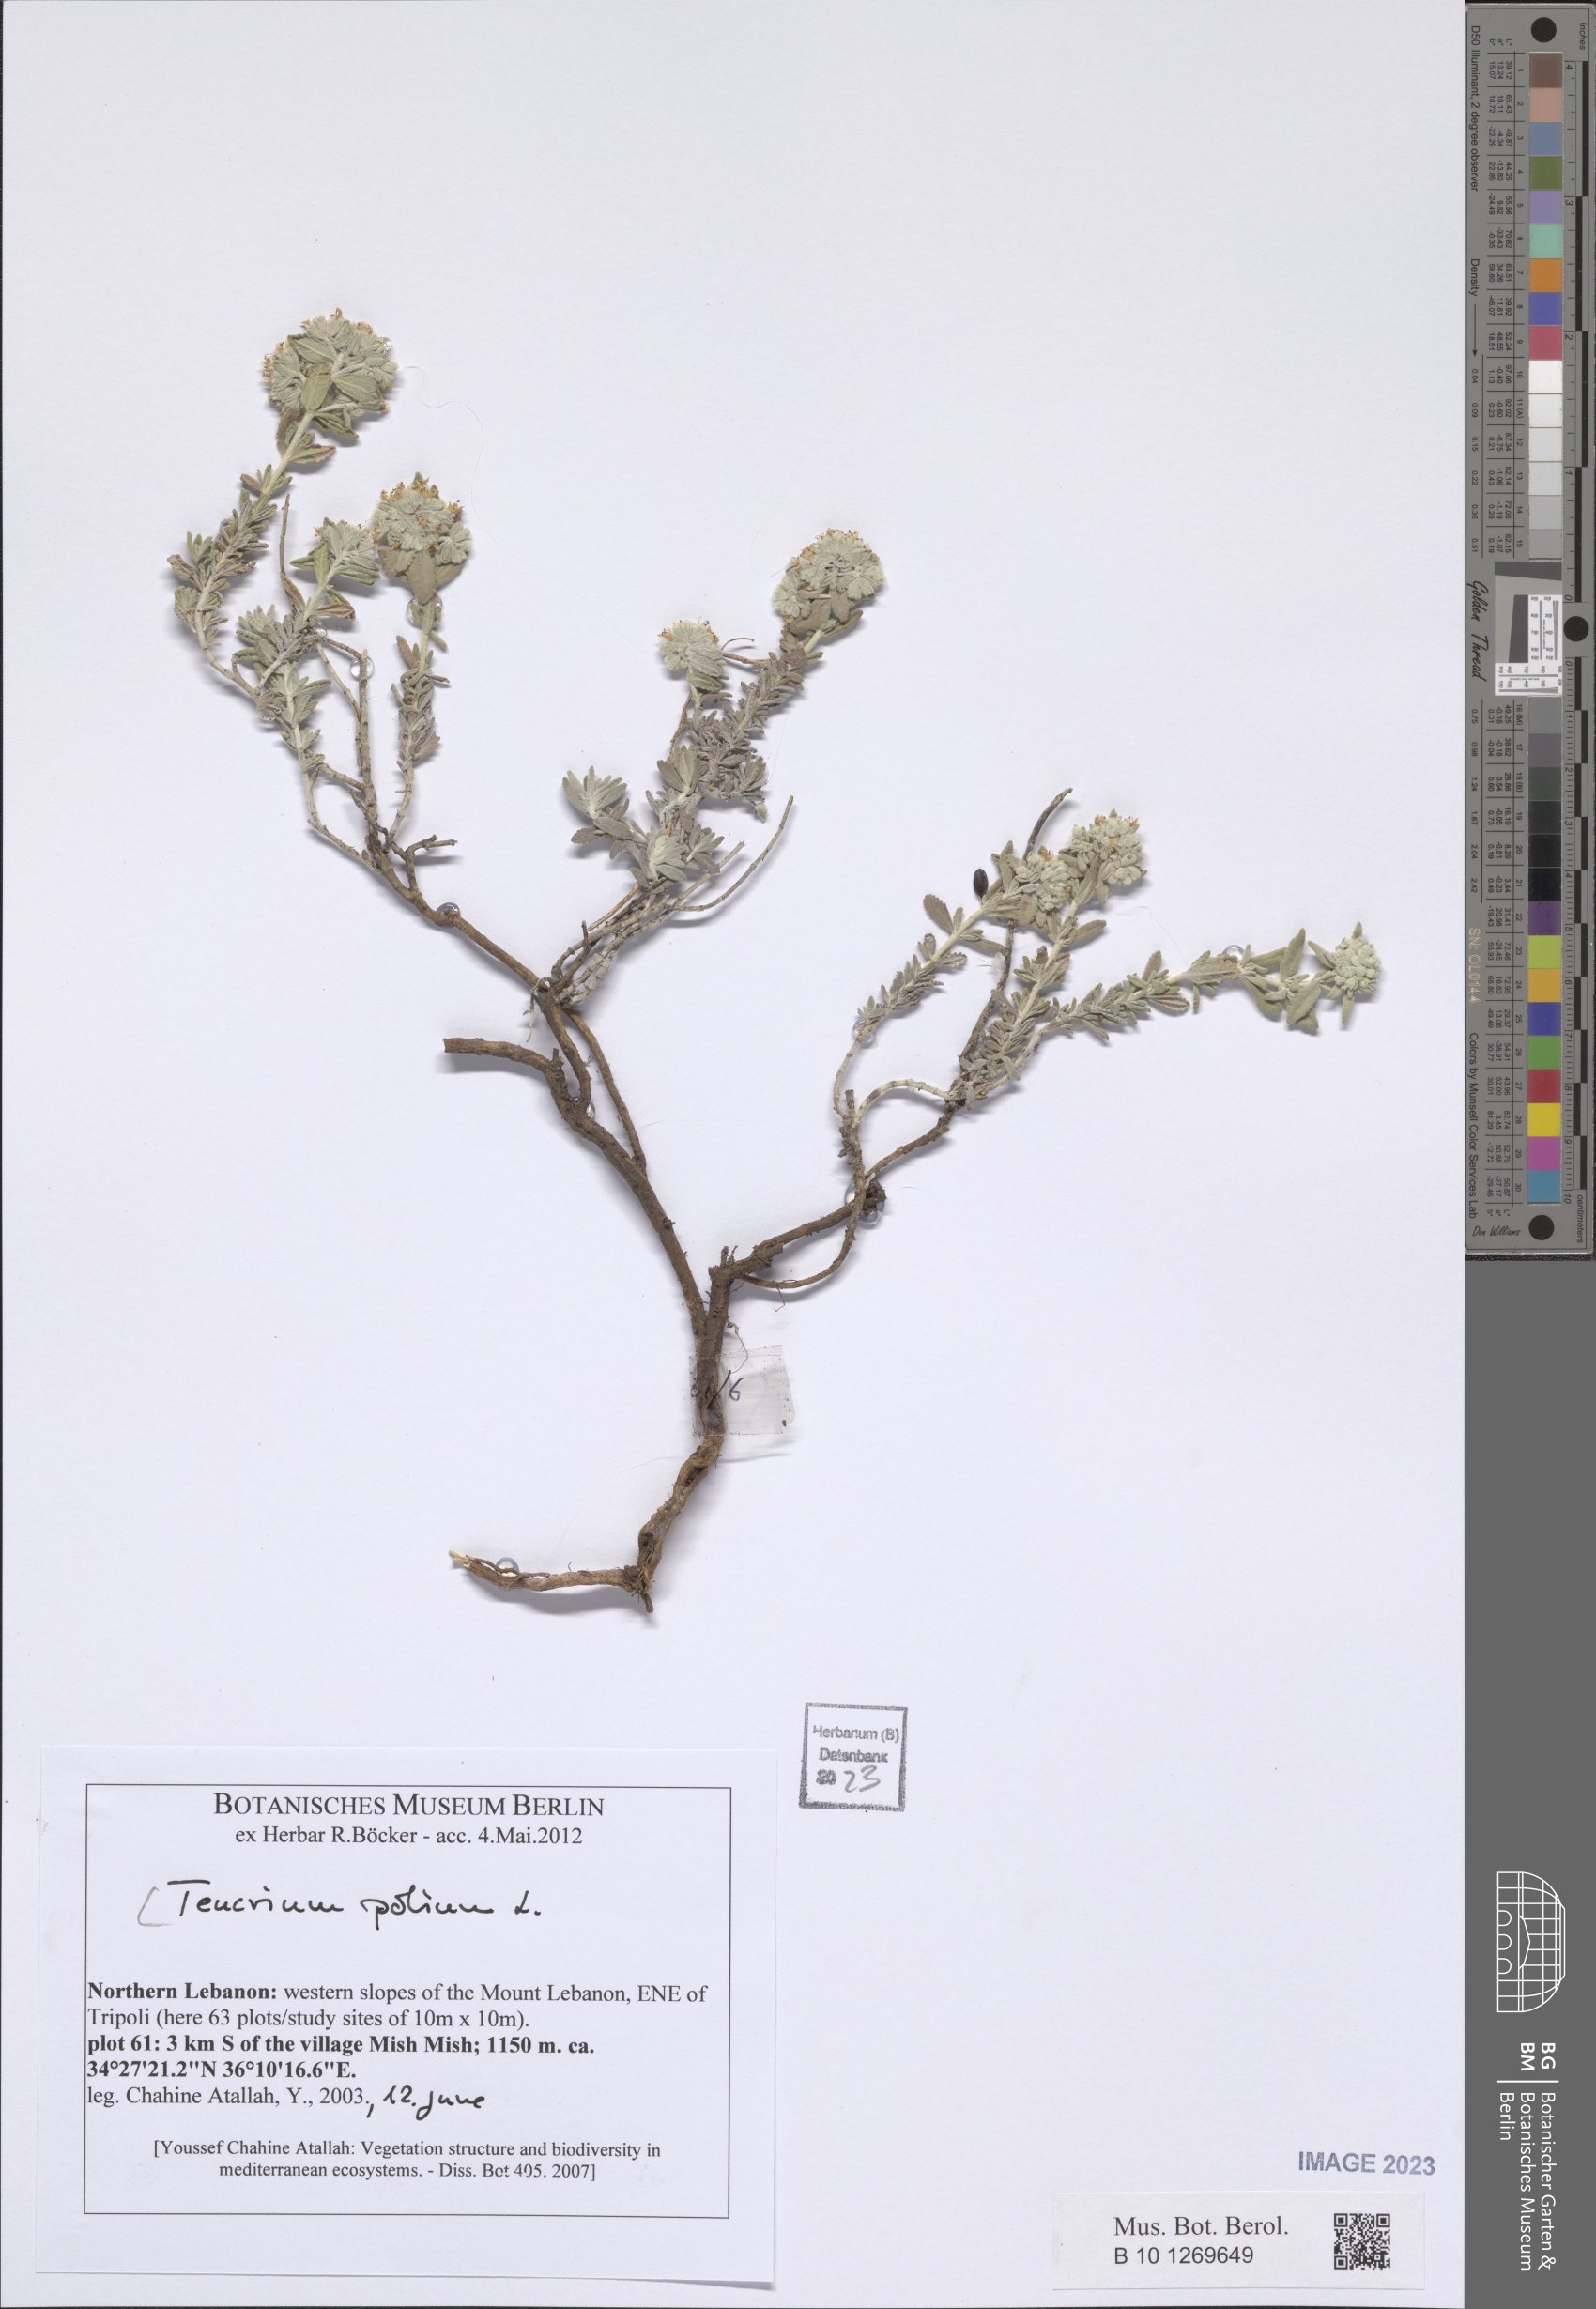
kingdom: Plantae
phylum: Tracheophyta
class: Magnoliopsida
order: Lamiales
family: Lamiaceae
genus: Teucrium
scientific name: Teucrium polium
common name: Poley
